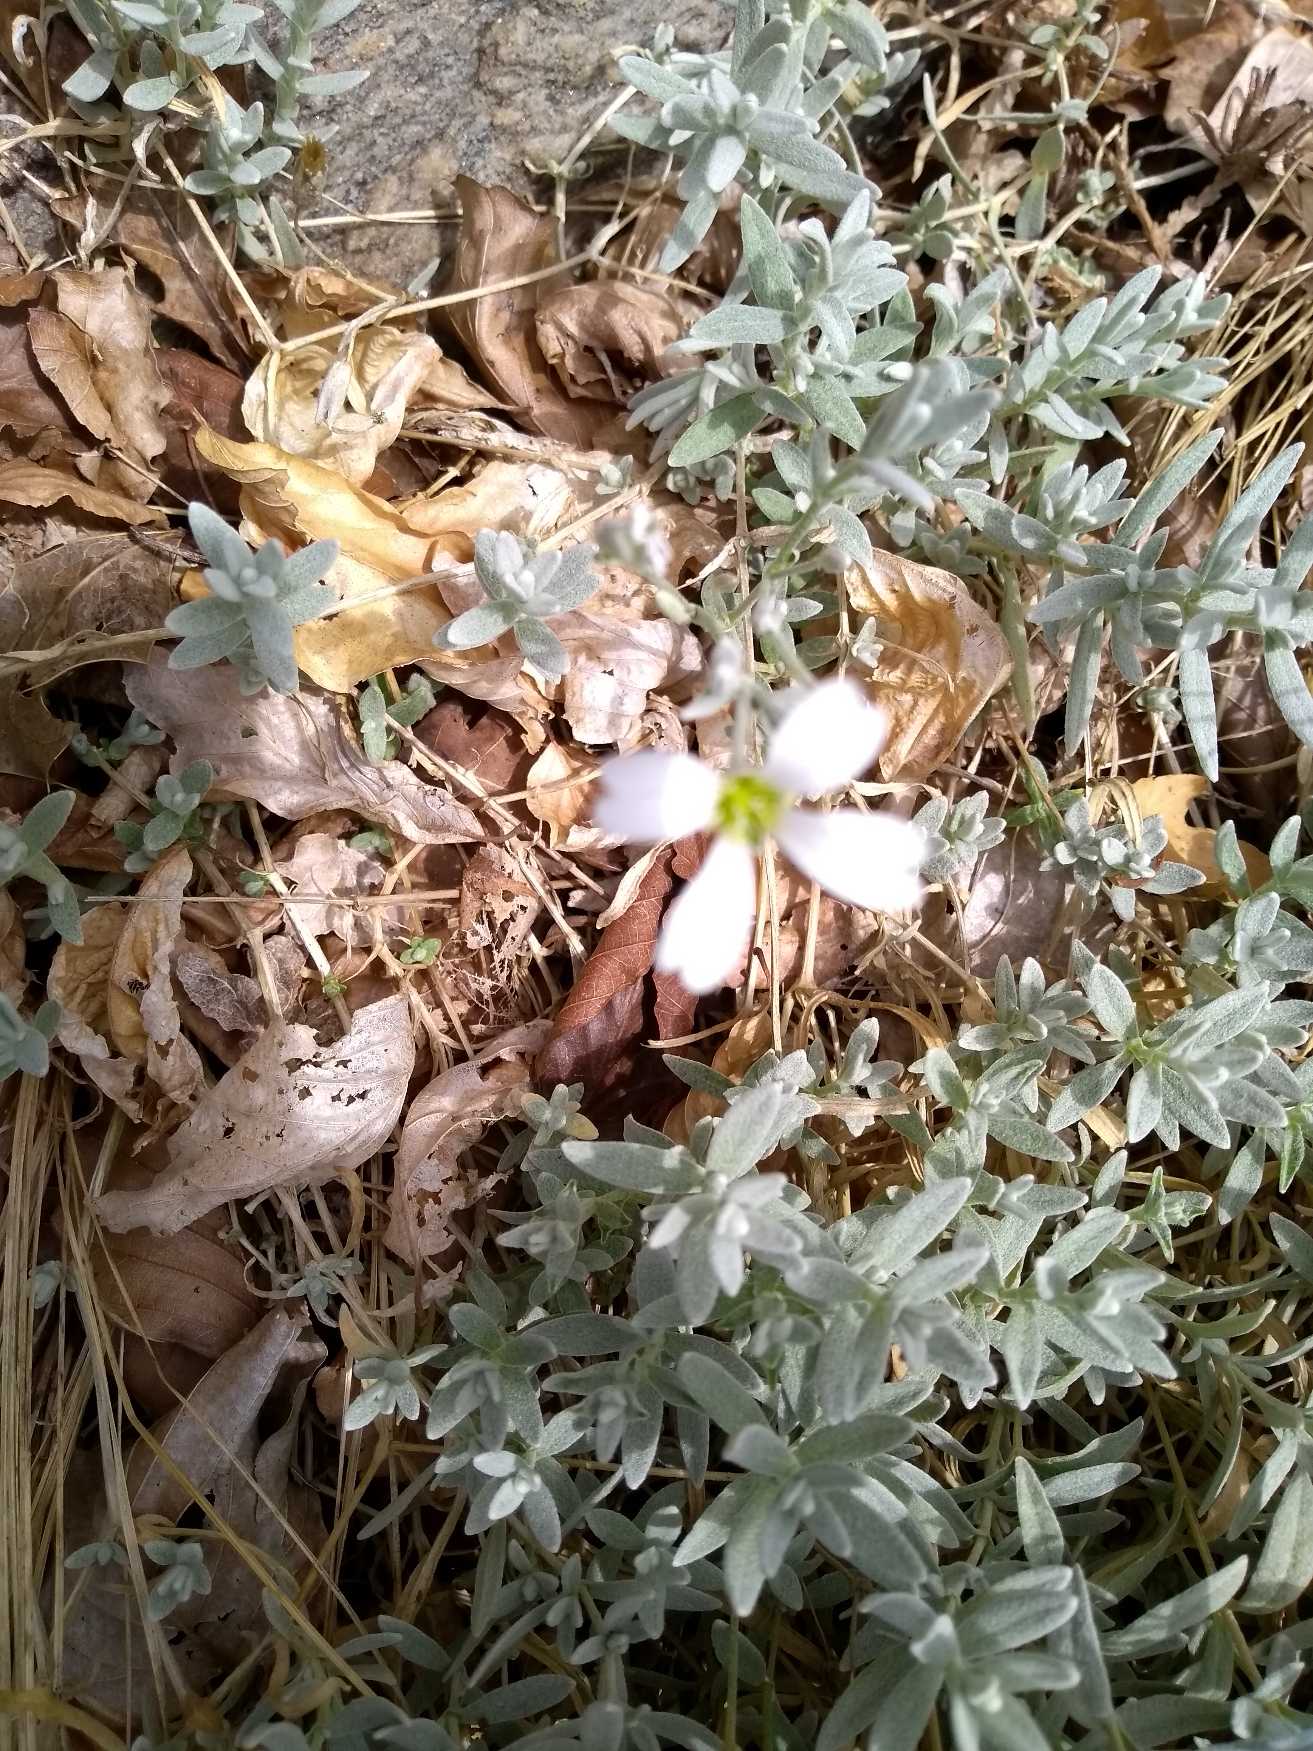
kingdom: Plantae
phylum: Tracheophyta
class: Magnoliopsida
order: Caryophyllales
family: Caryophyllaceae
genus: Cerastium
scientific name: Cerastium tomentosum
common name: Filtet hønsetarm
